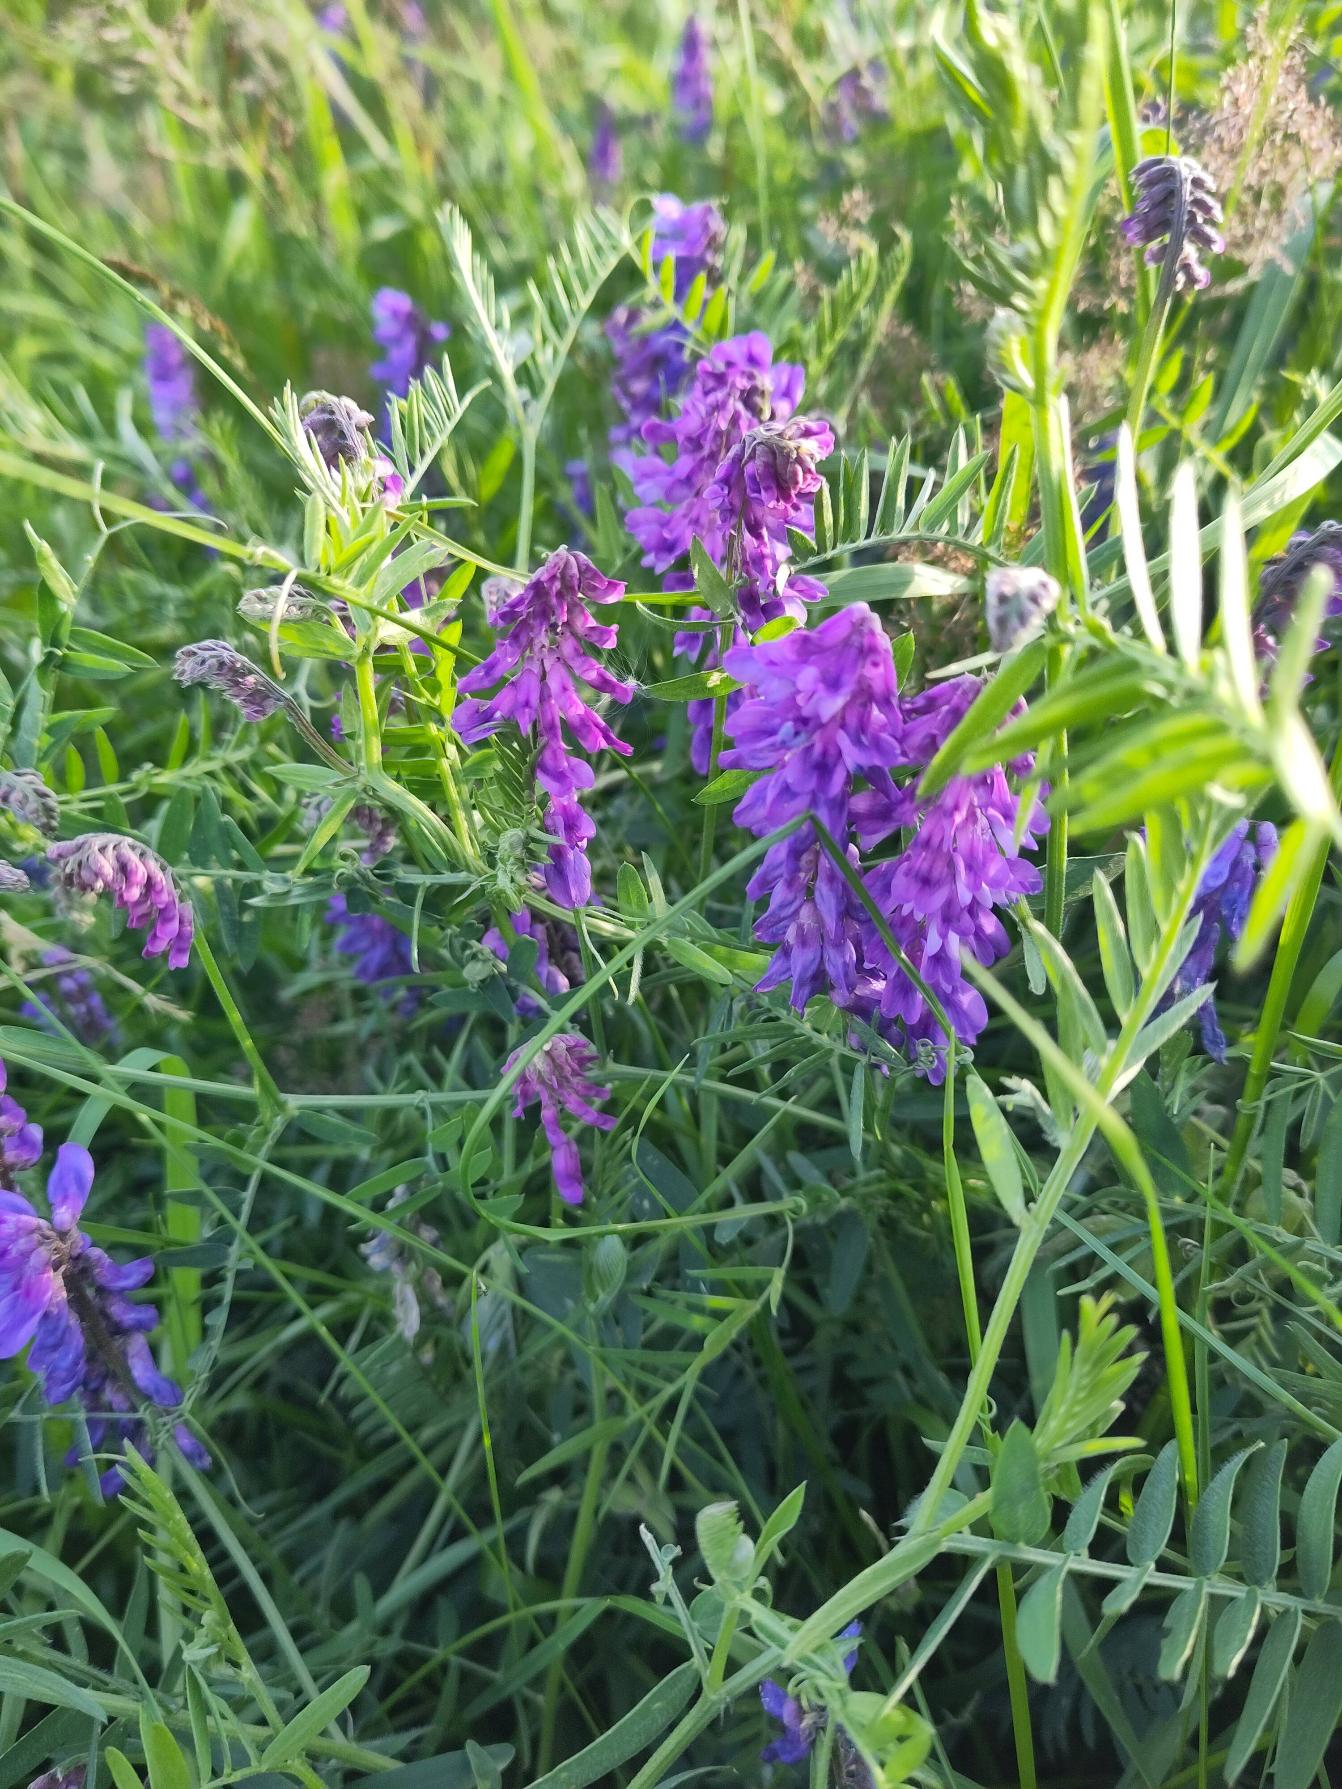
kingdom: Plantae
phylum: Tracheophyta
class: Magnoliopsida
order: Fabales
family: Fabaceae
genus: Vicia
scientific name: Vicia cracca
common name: Muse-vikke
